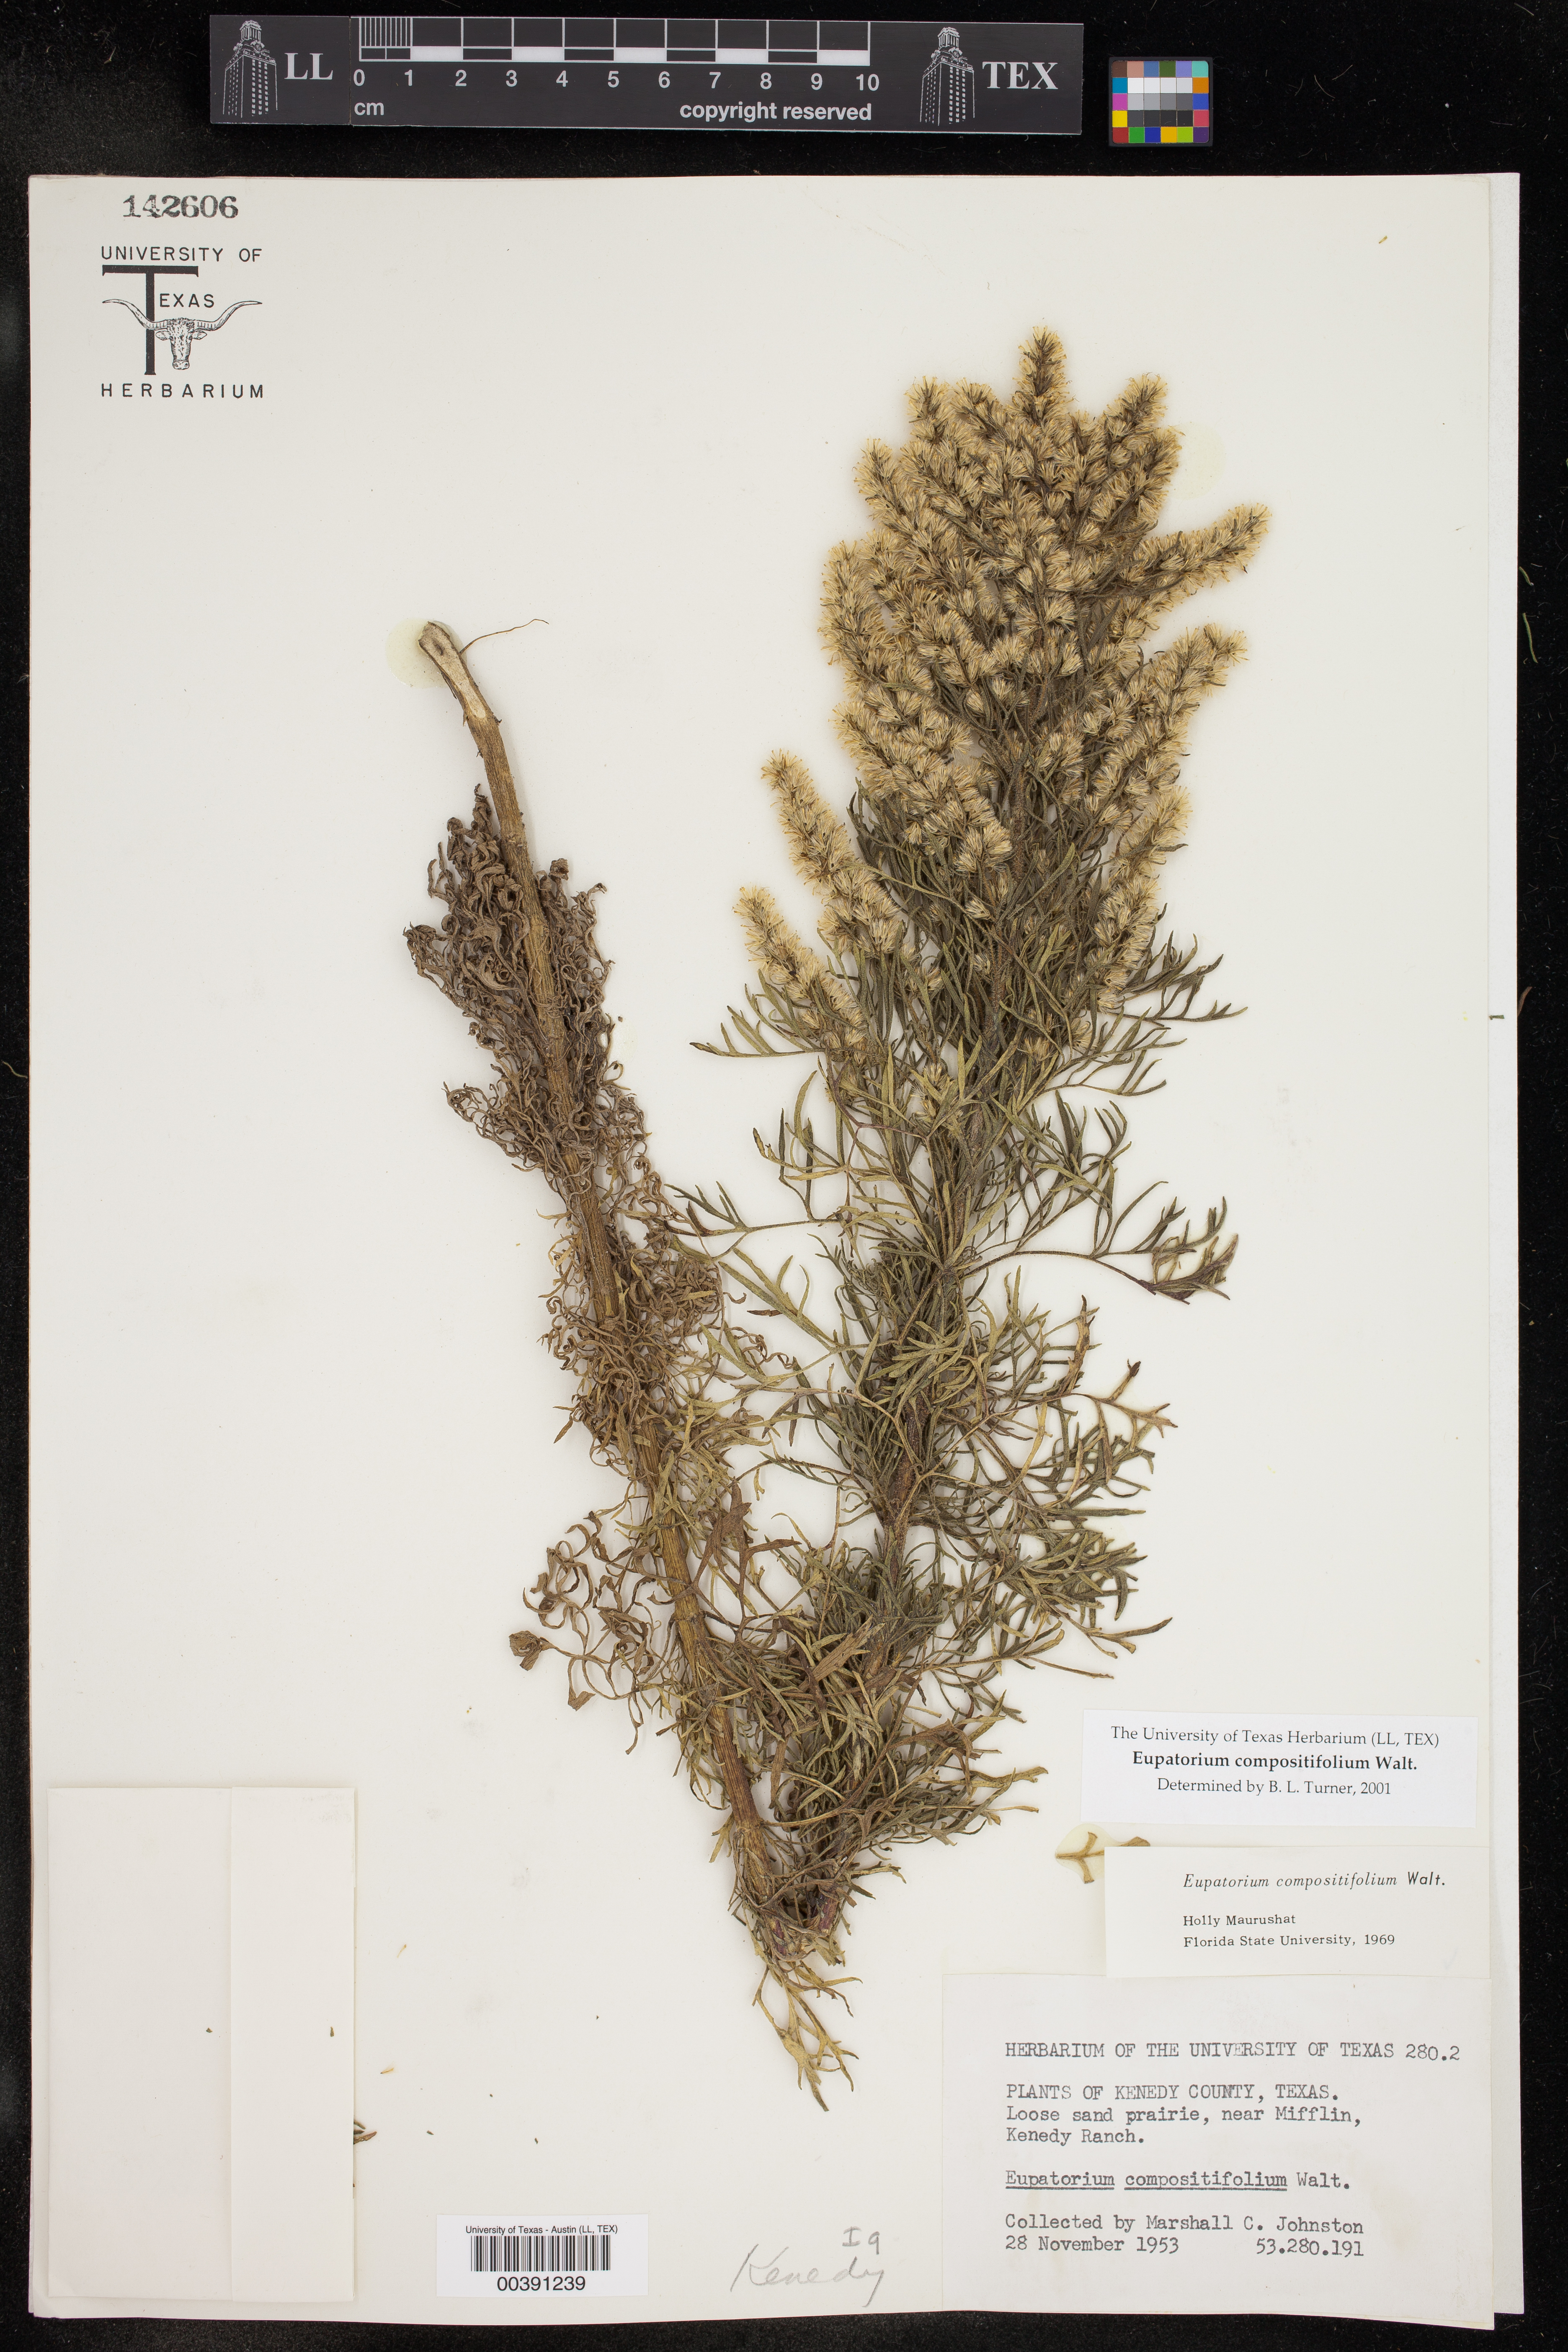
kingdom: Plantae
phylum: Tracheophyta
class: Magnoliopsida
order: Asterales
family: Asteraceae
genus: Eupatorium
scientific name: Eupatorium compositifolium
